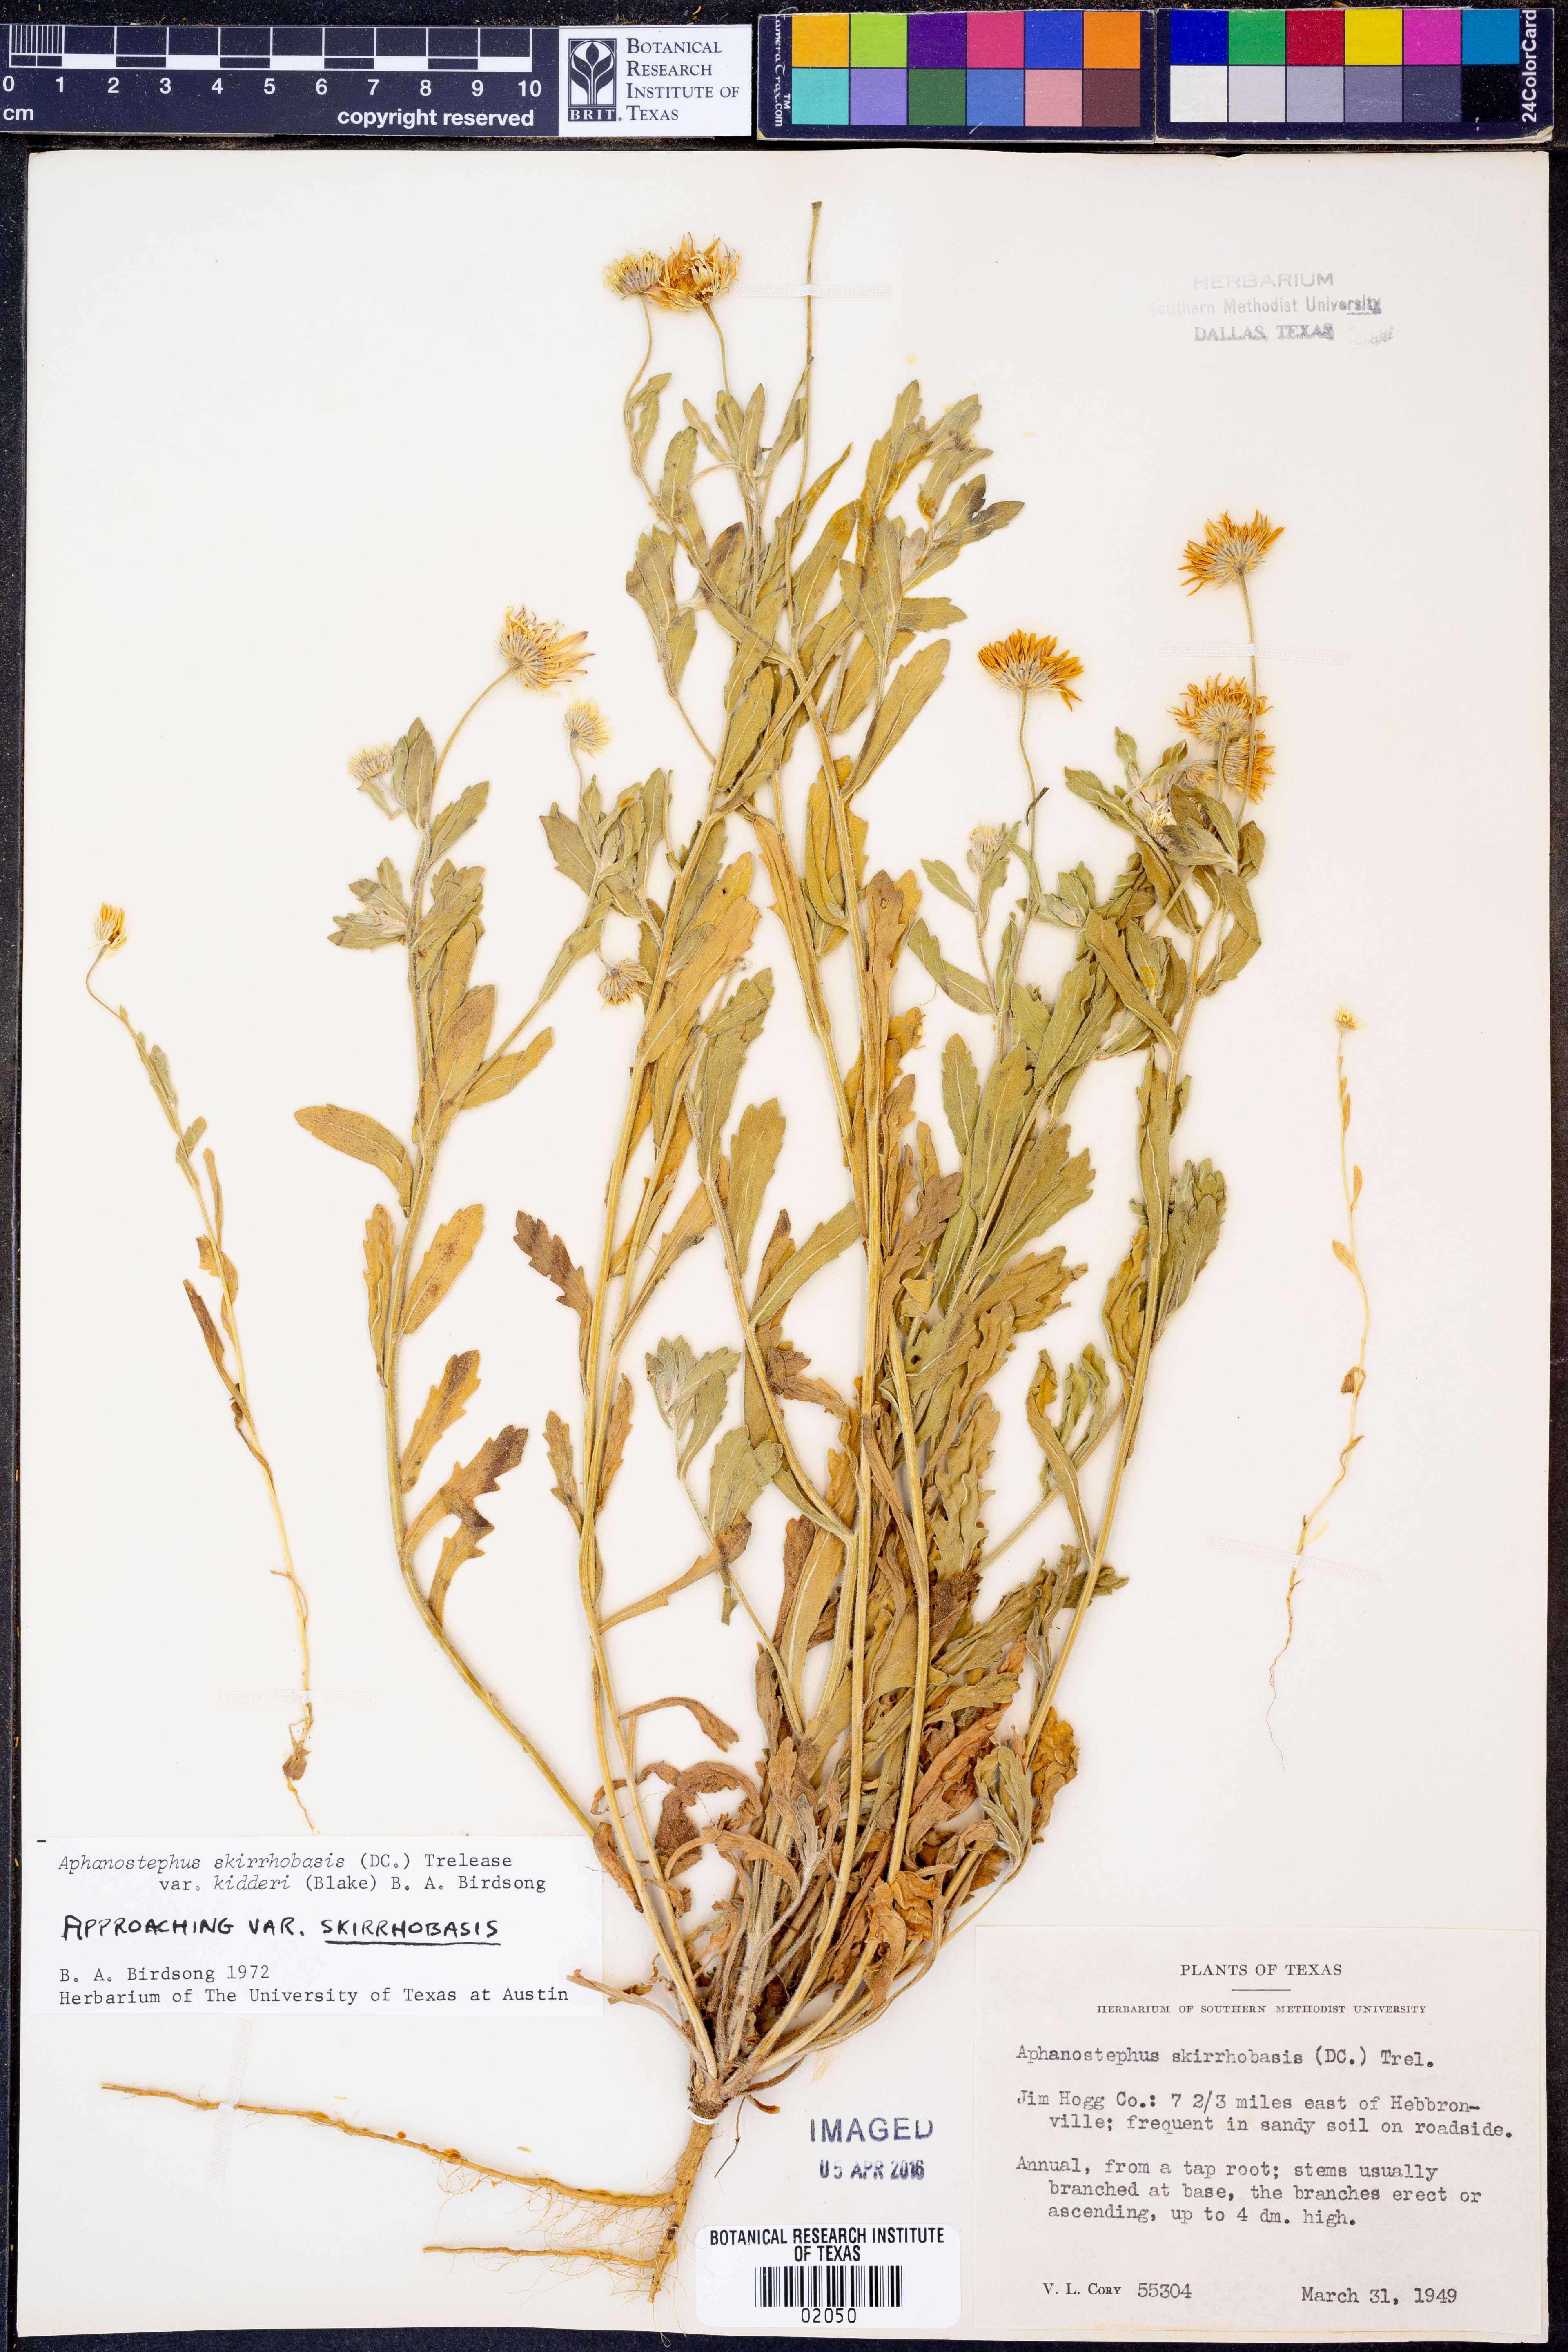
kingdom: Plantae
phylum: Tracheophyta
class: Magnoliopsida
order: Asterales
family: Asteraceae
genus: Aphanostephus
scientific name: Aphanostephus skirrhobasis
